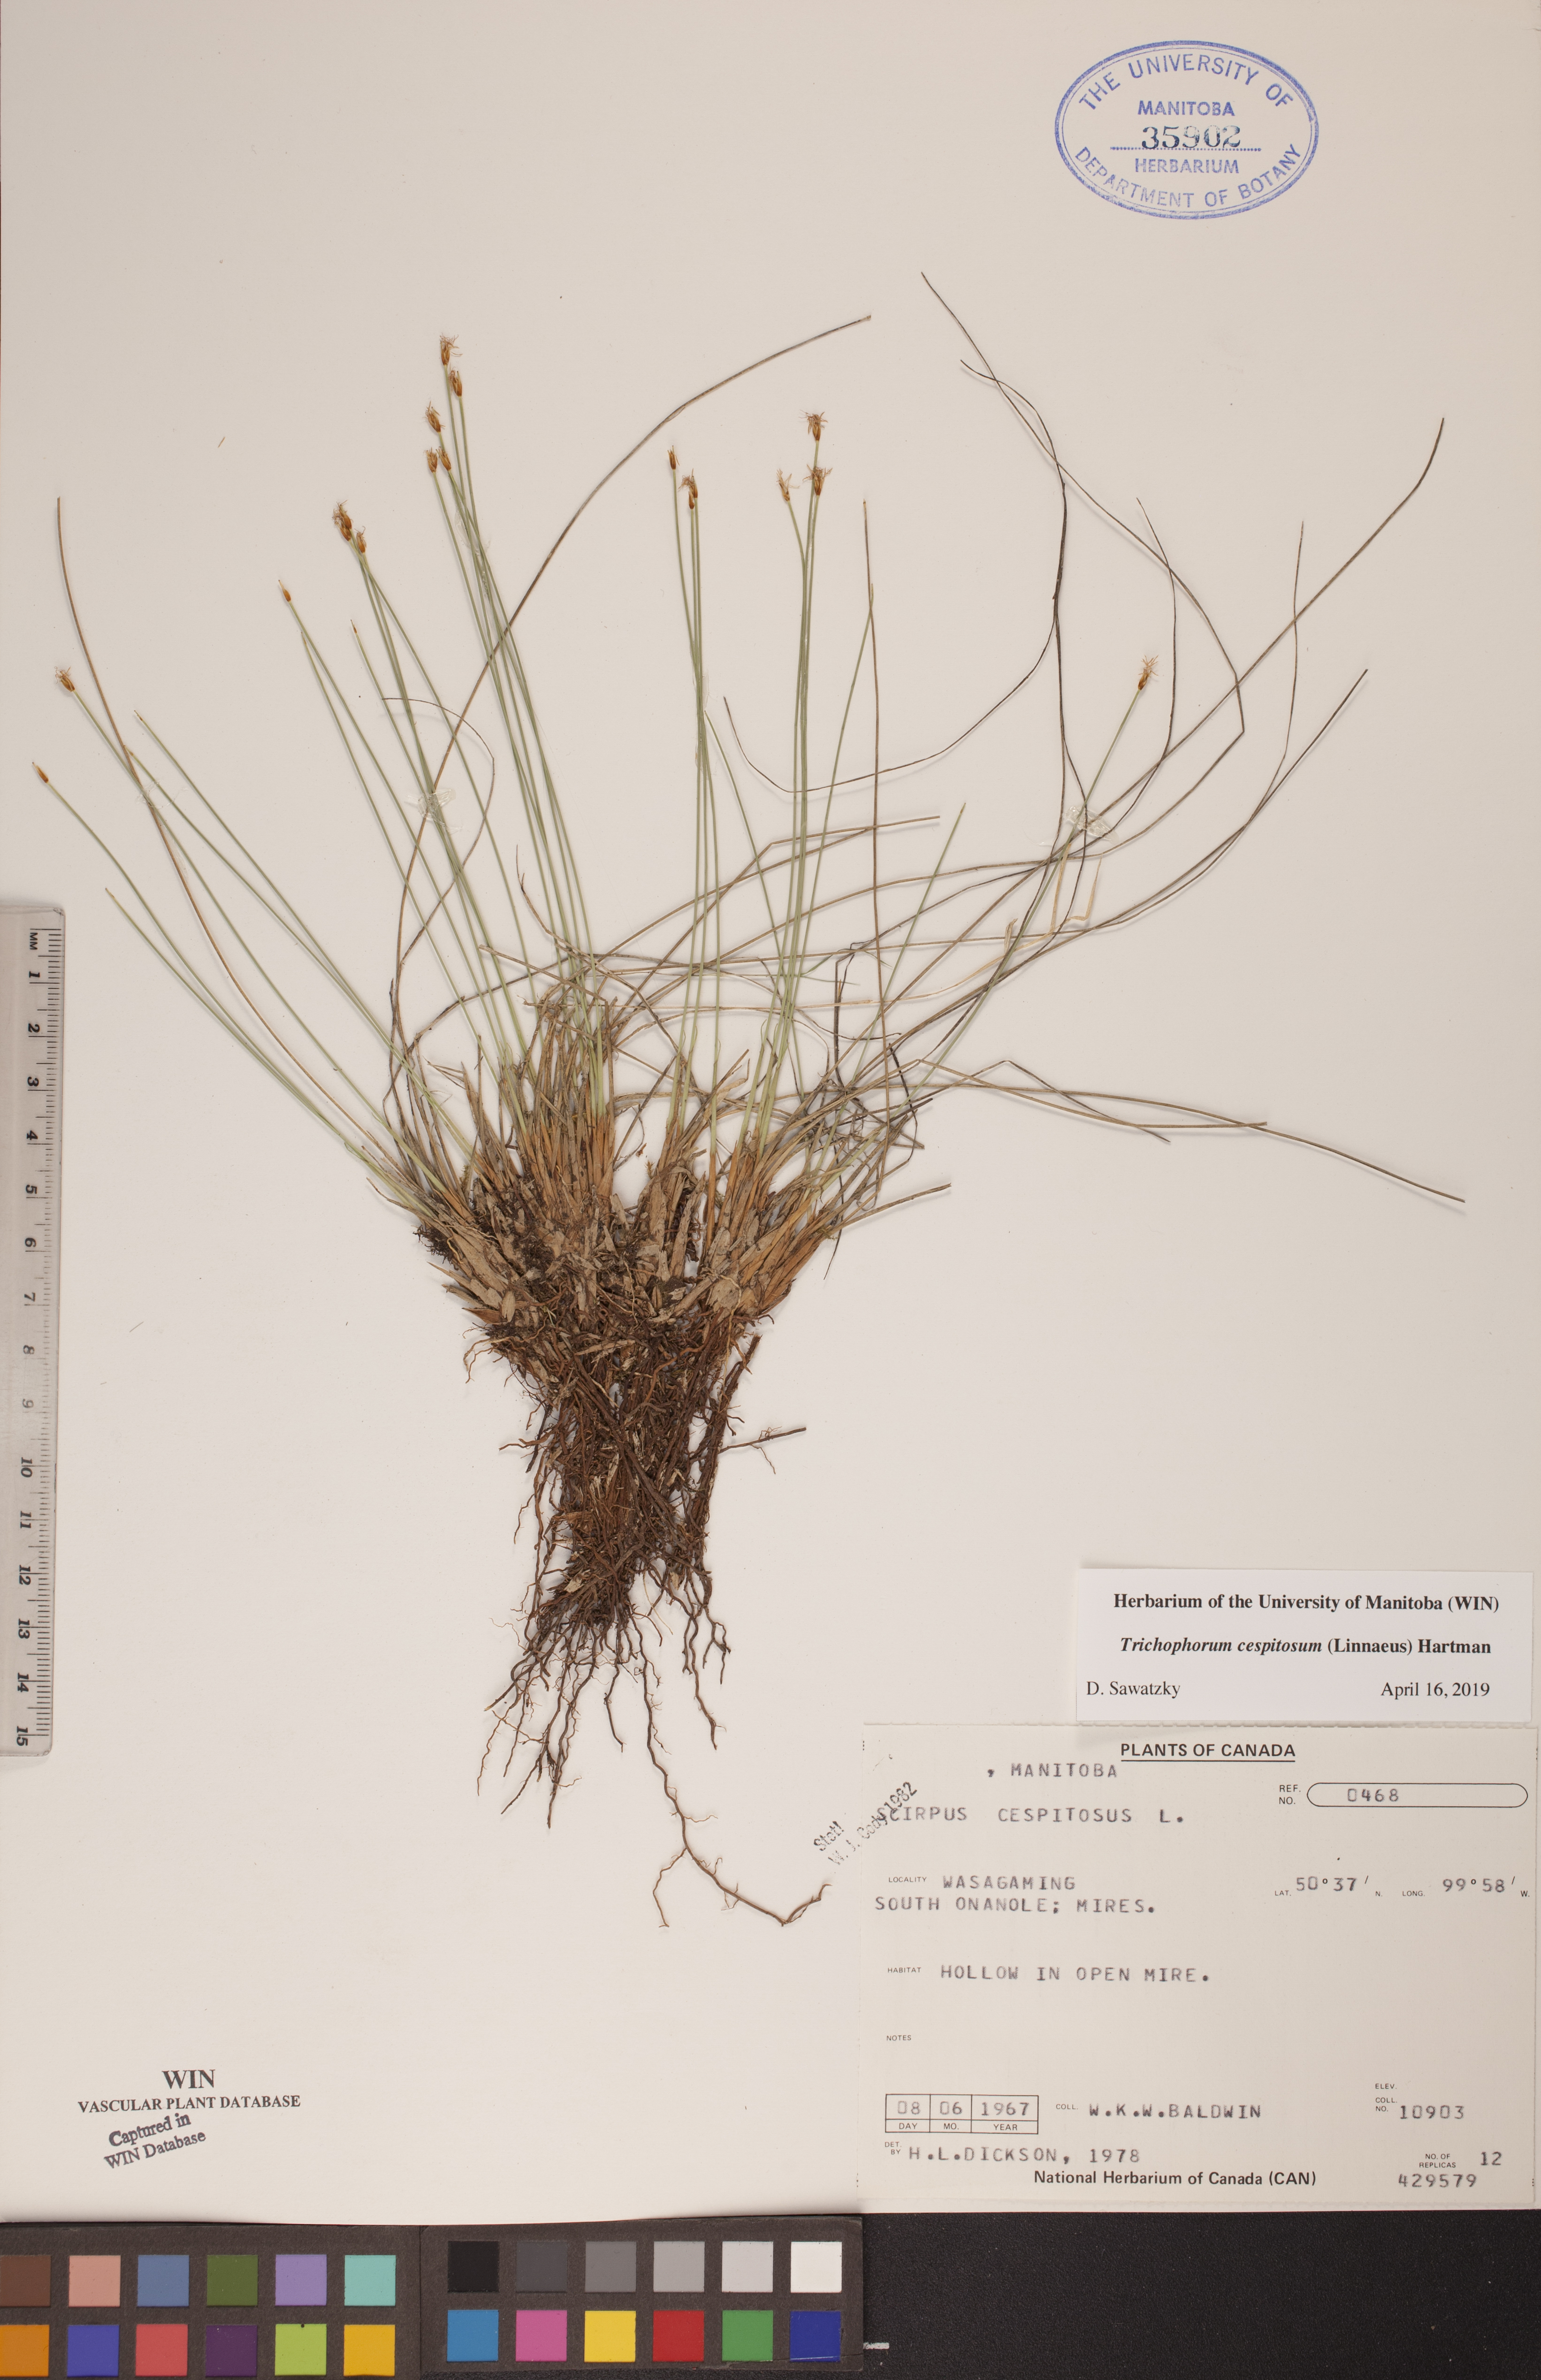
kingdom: Plantae
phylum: Tracheophyta
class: Liliopsida
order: Poales
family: Cyperaceae
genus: Trichophorum
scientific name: Trichophorum cespitosum
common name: Cespitose bulrush
